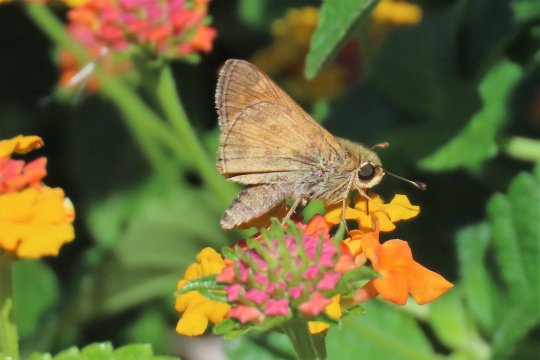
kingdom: Animalia
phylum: Arthropoda
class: Insecta
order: Lepidoptera
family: Hesperiidae
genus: Atalopedes
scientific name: Atalopedes campestris
